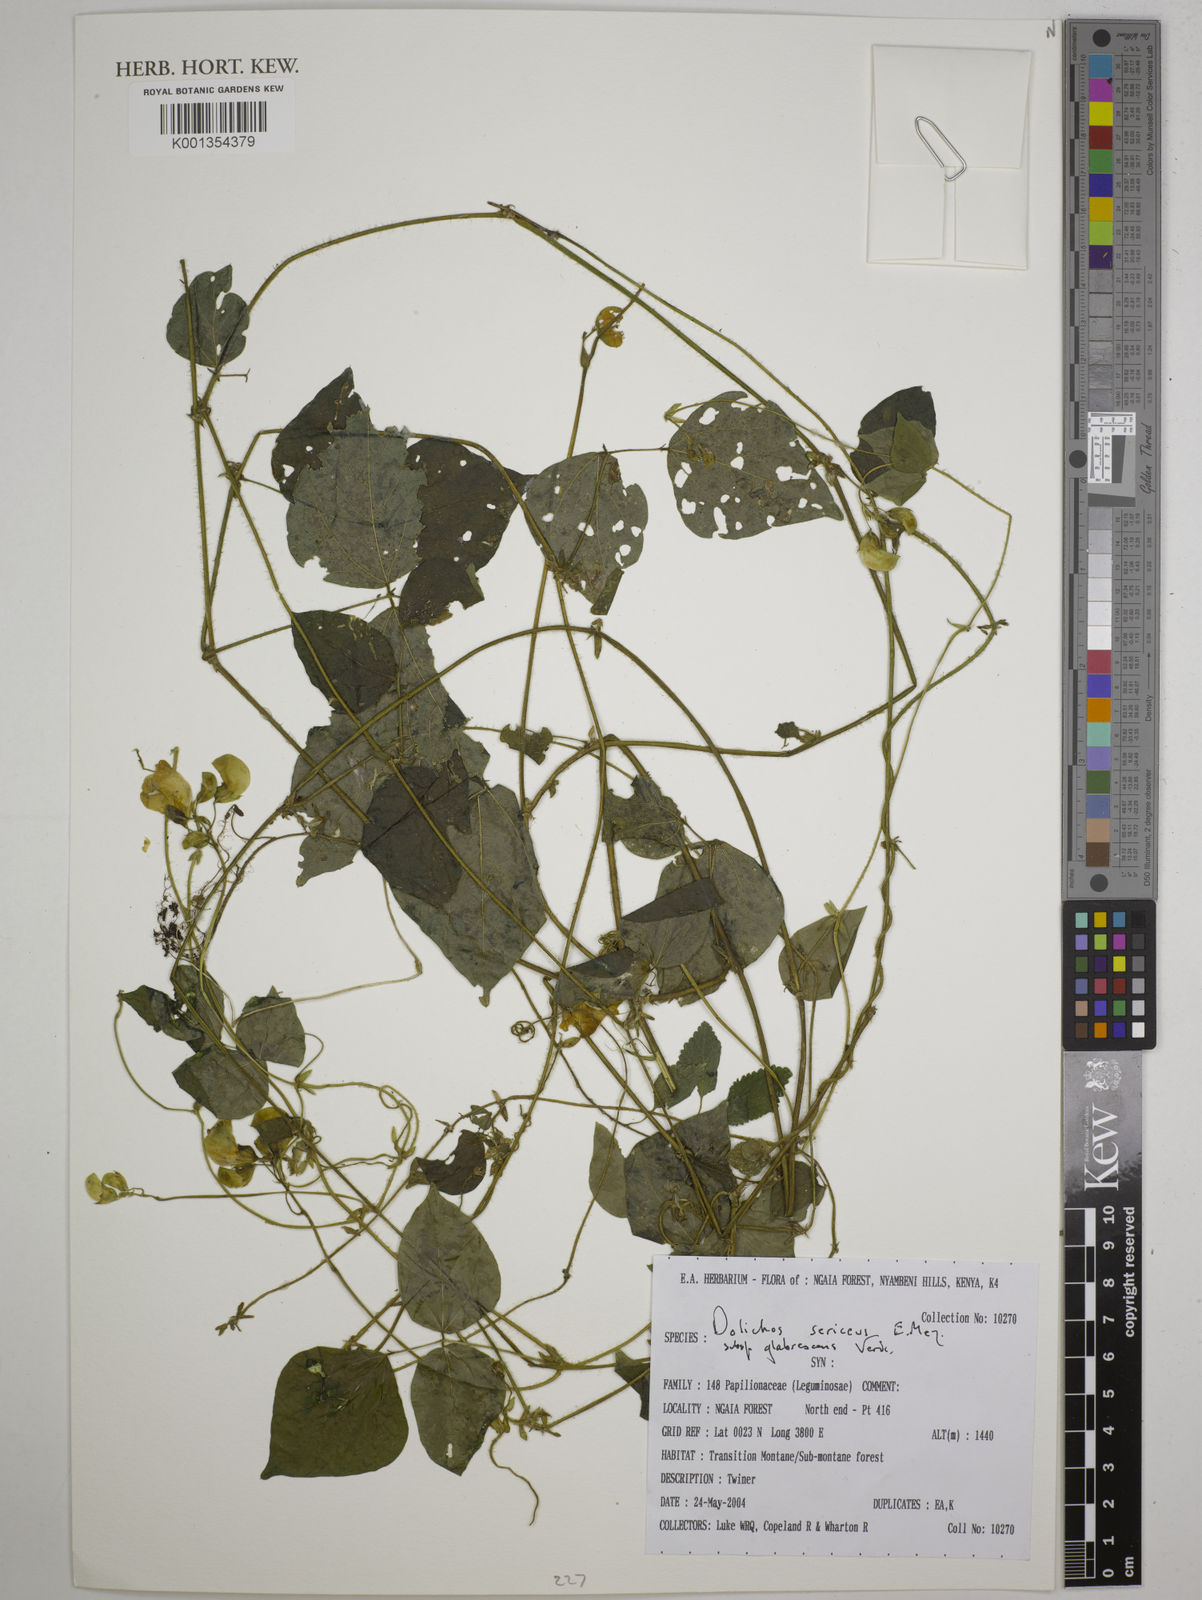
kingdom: Plantae
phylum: Tracheophyta
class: Magnoliopsida
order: Fabales
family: Fabaceae
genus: Dolichos
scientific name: Dolichos sericeus
